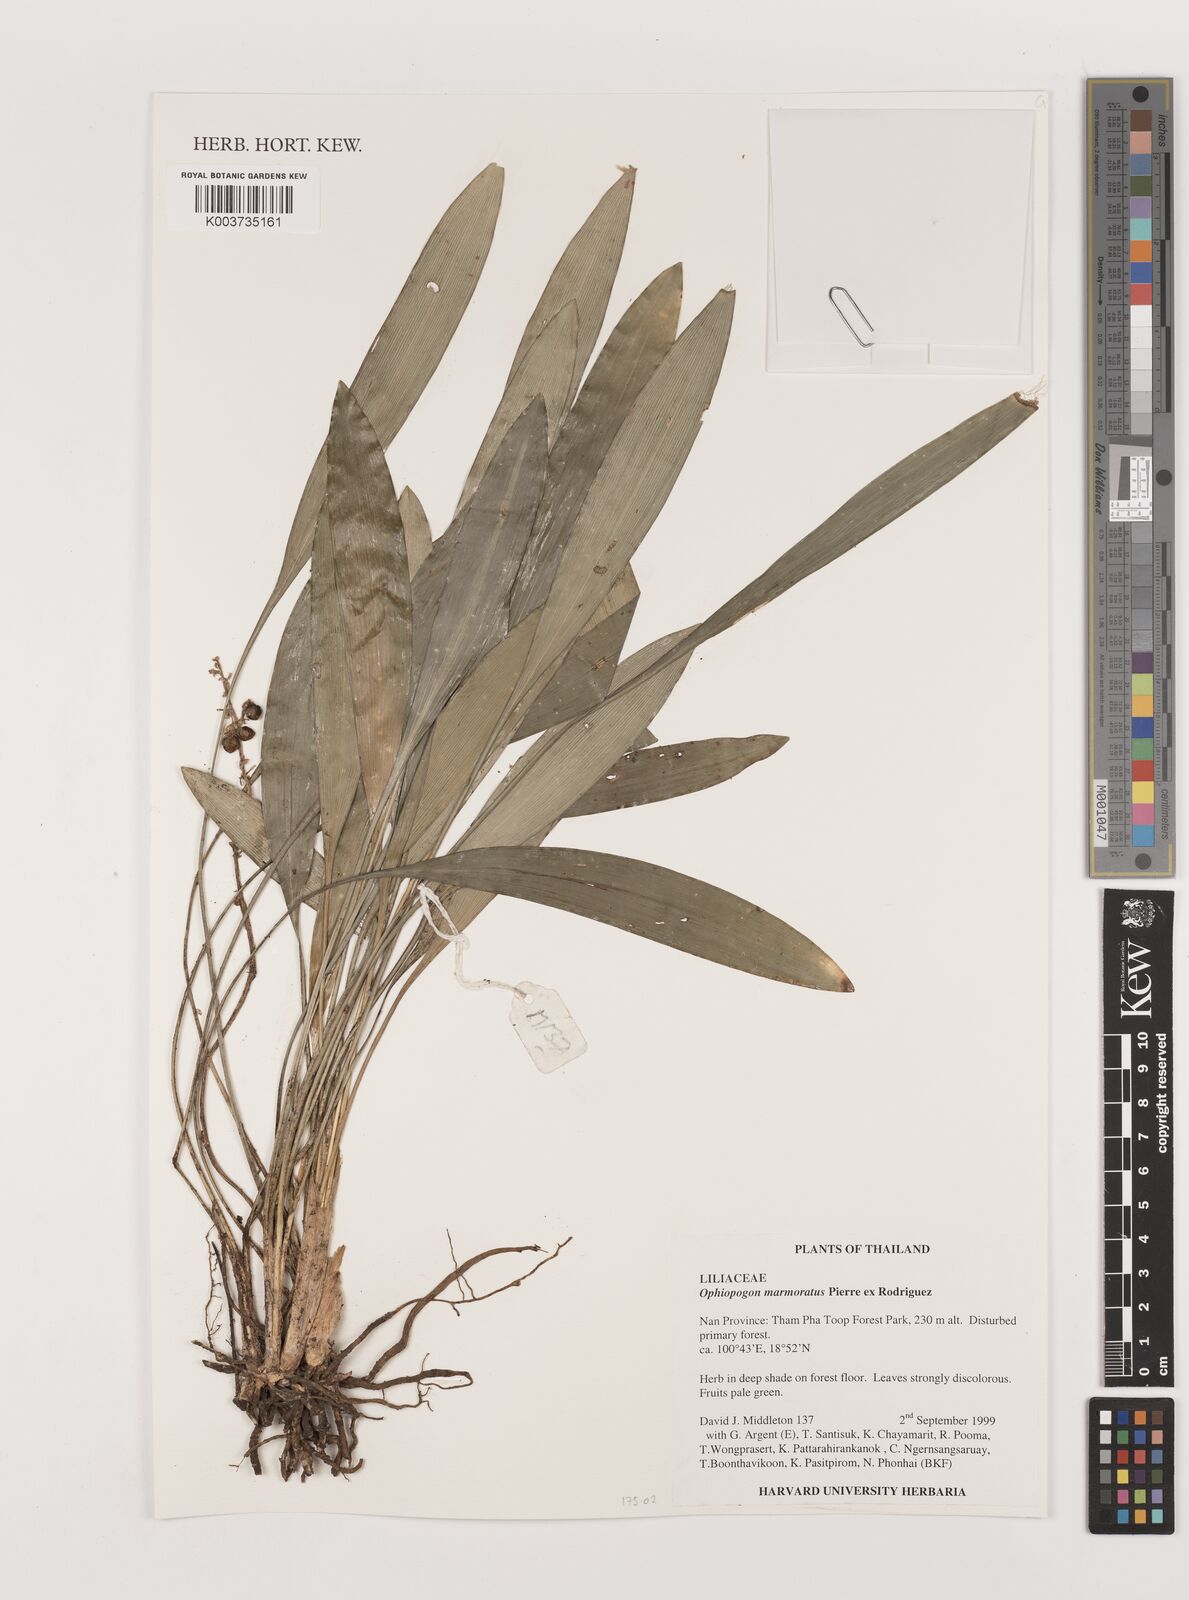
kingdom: Plantae
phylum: Tracheophyta
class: Liliopsida
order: Asparagales
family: Asparagaceae
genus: Ophiopogon
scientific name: Ophiopogon marmoratus
